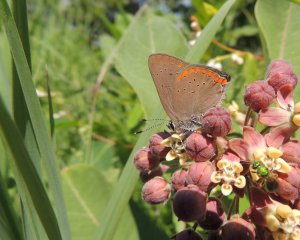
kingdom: Animalia
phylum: Arthropoda
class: Insecta
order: Lepidoptera
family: Lycaenidae
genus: Harkenclenus
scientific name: Harkenclenus titus
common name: Coral Hairstreak
